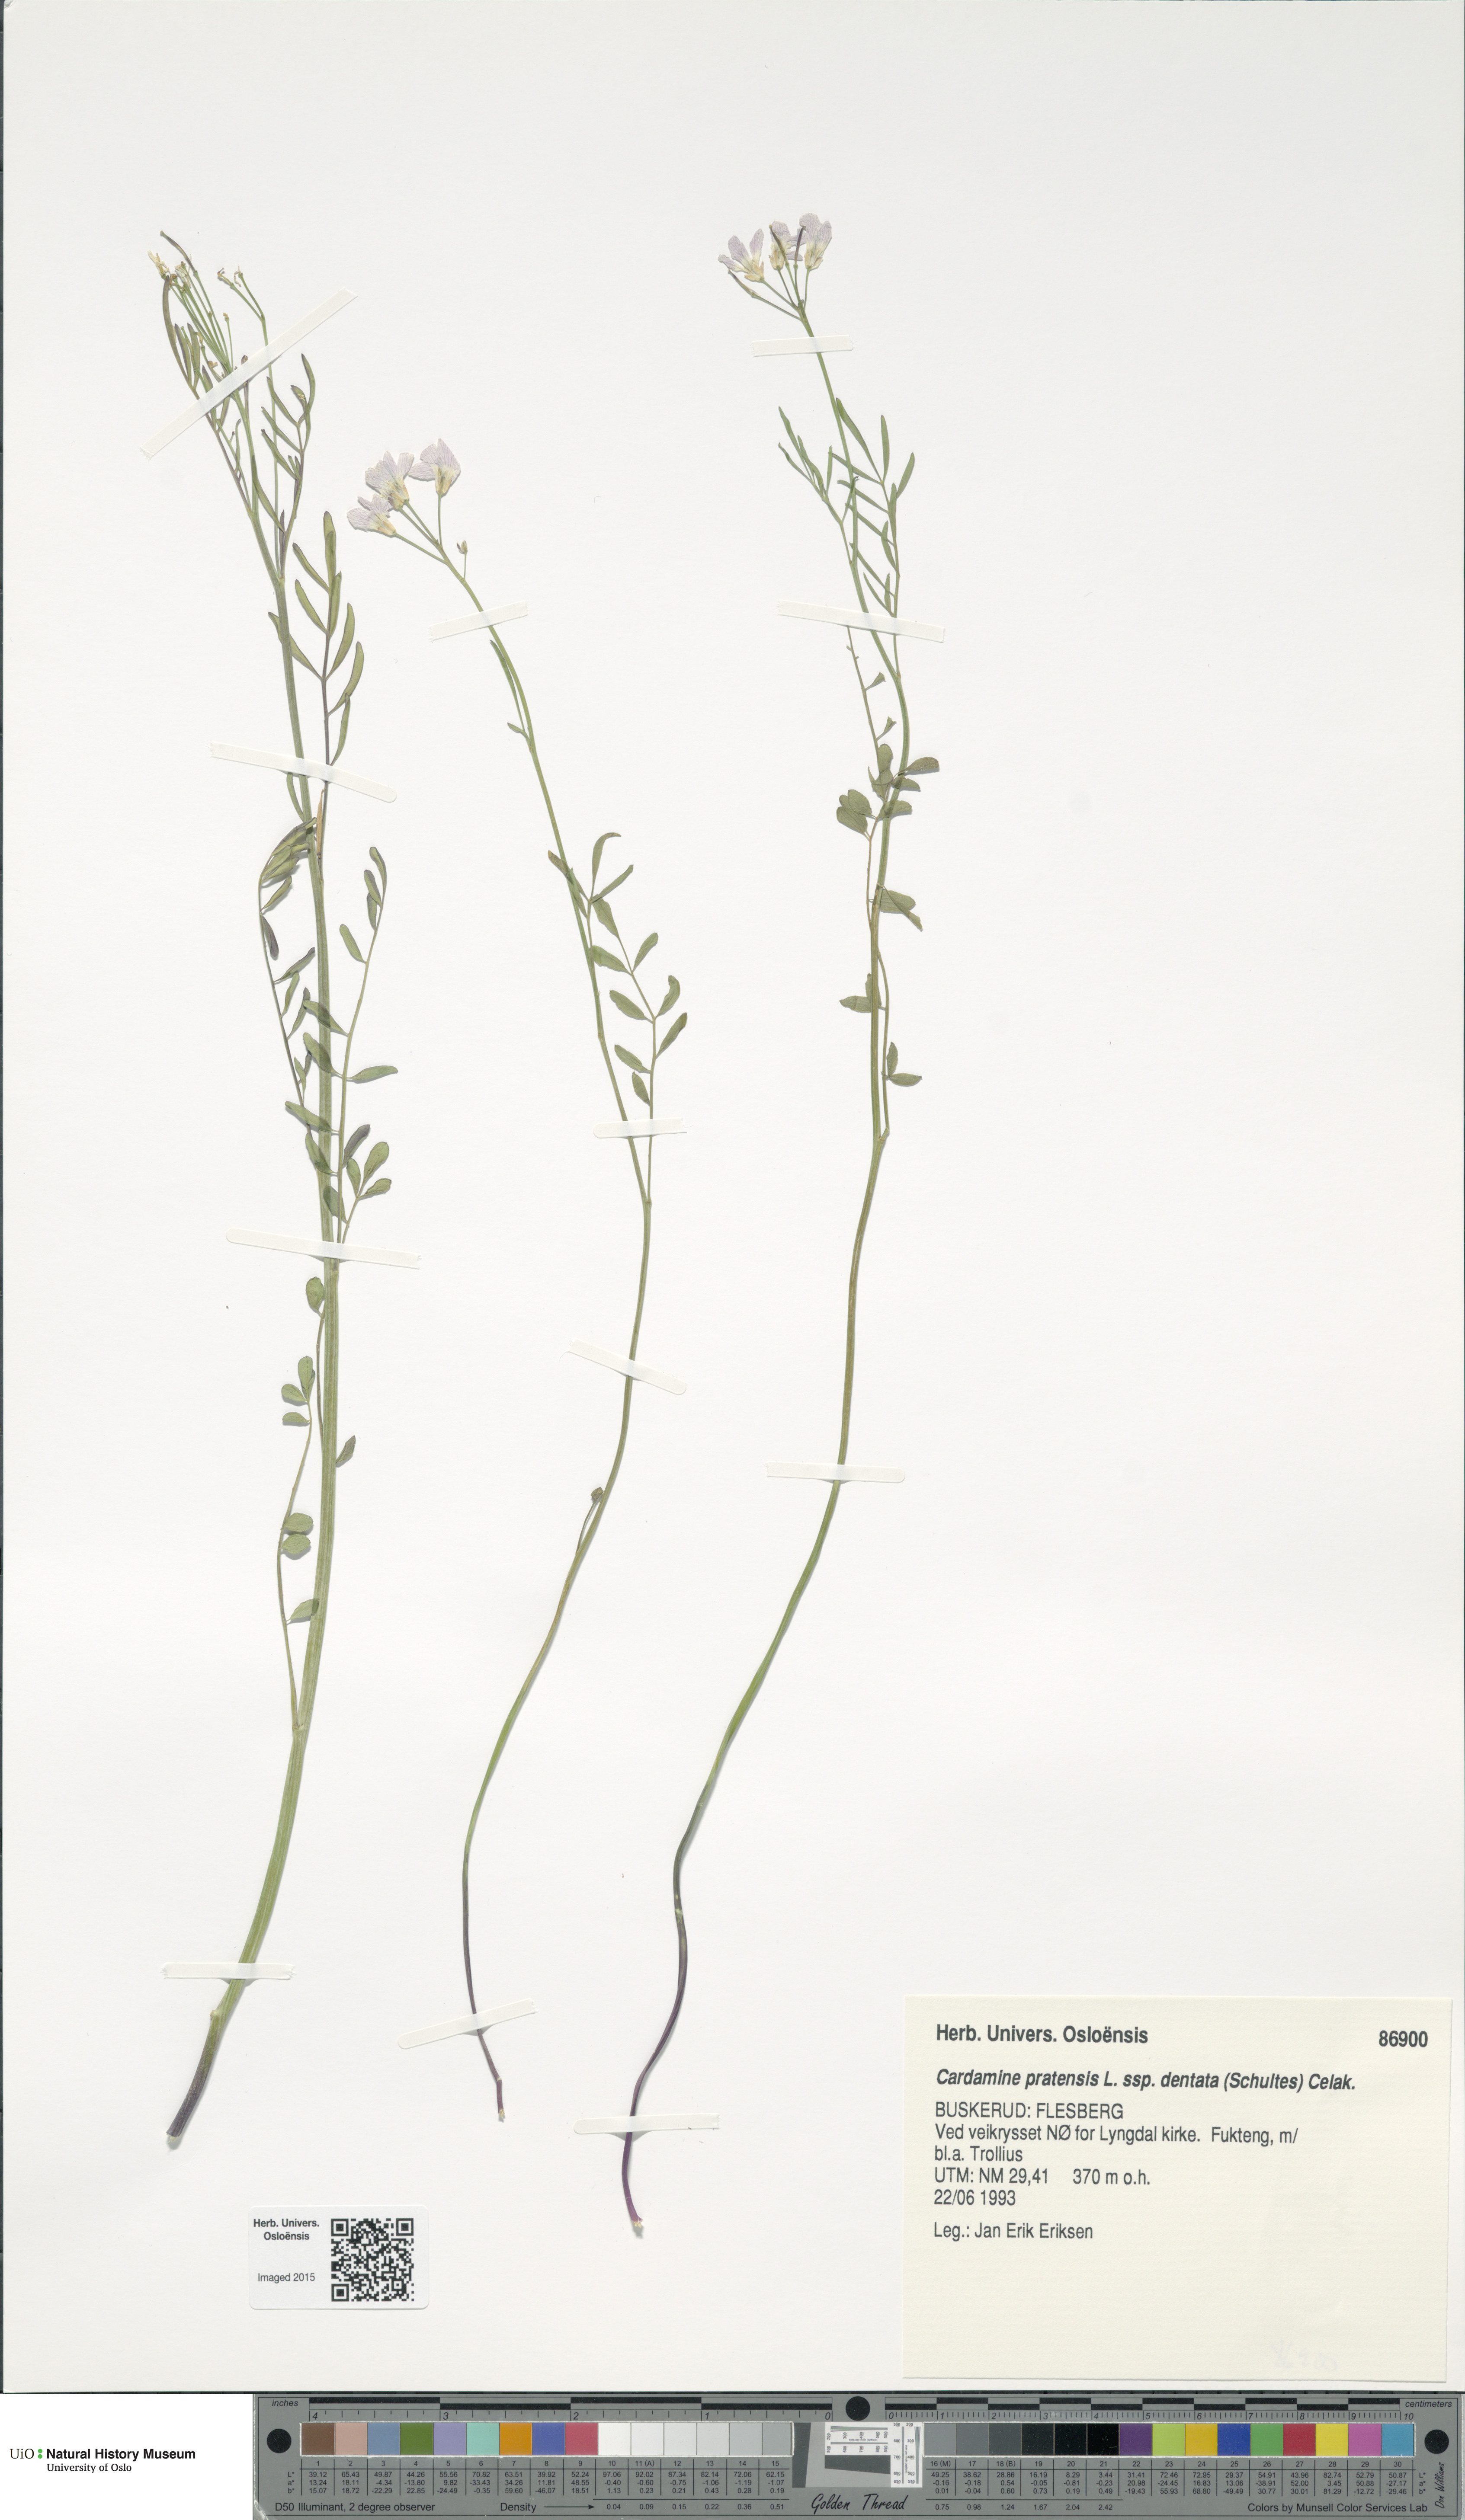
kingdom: Plantae
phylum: Tracheophyta
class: Magnoliopsida
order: Brassicales
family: Brassicaceae
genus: Cardamine
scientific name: Cardamine dentata
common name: Toothed bittercress
